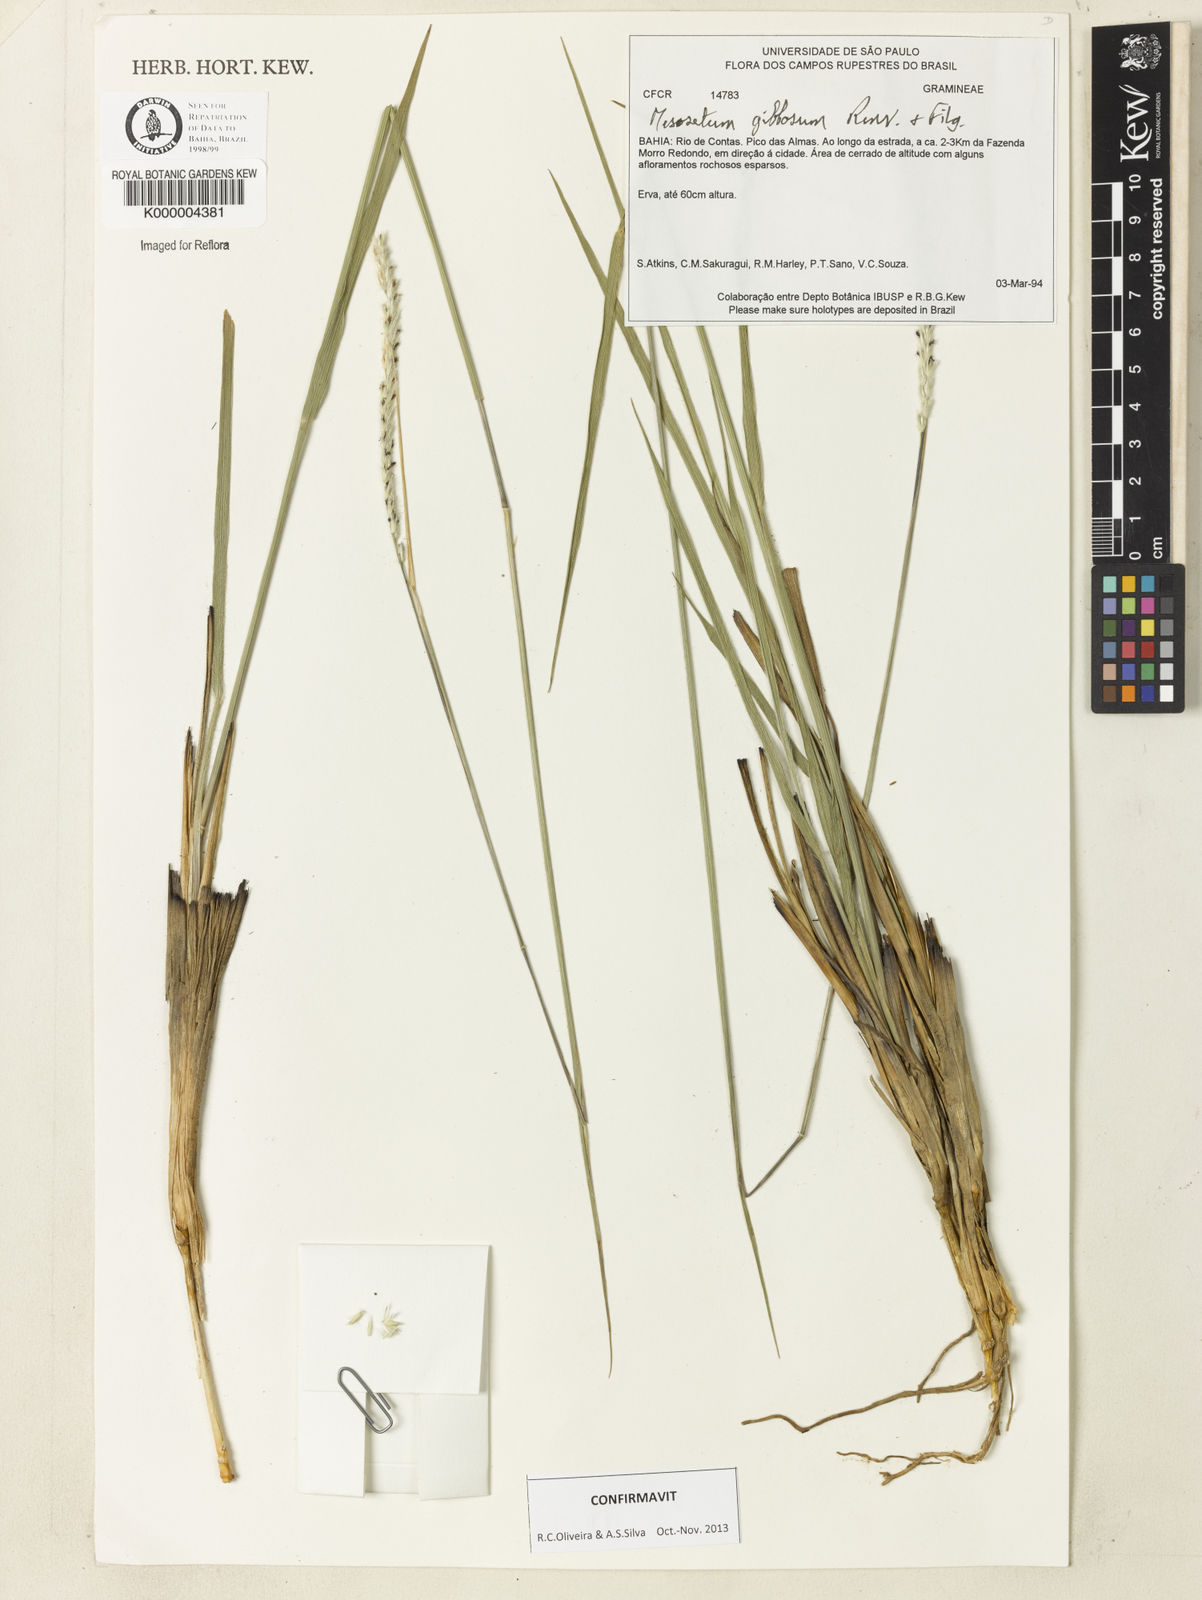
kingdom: Plantae
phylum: Tracheophyta
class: Liliopsida
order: Poales
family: Poaceae
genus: Mesosetum
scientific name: Mesosetum gibbosum
